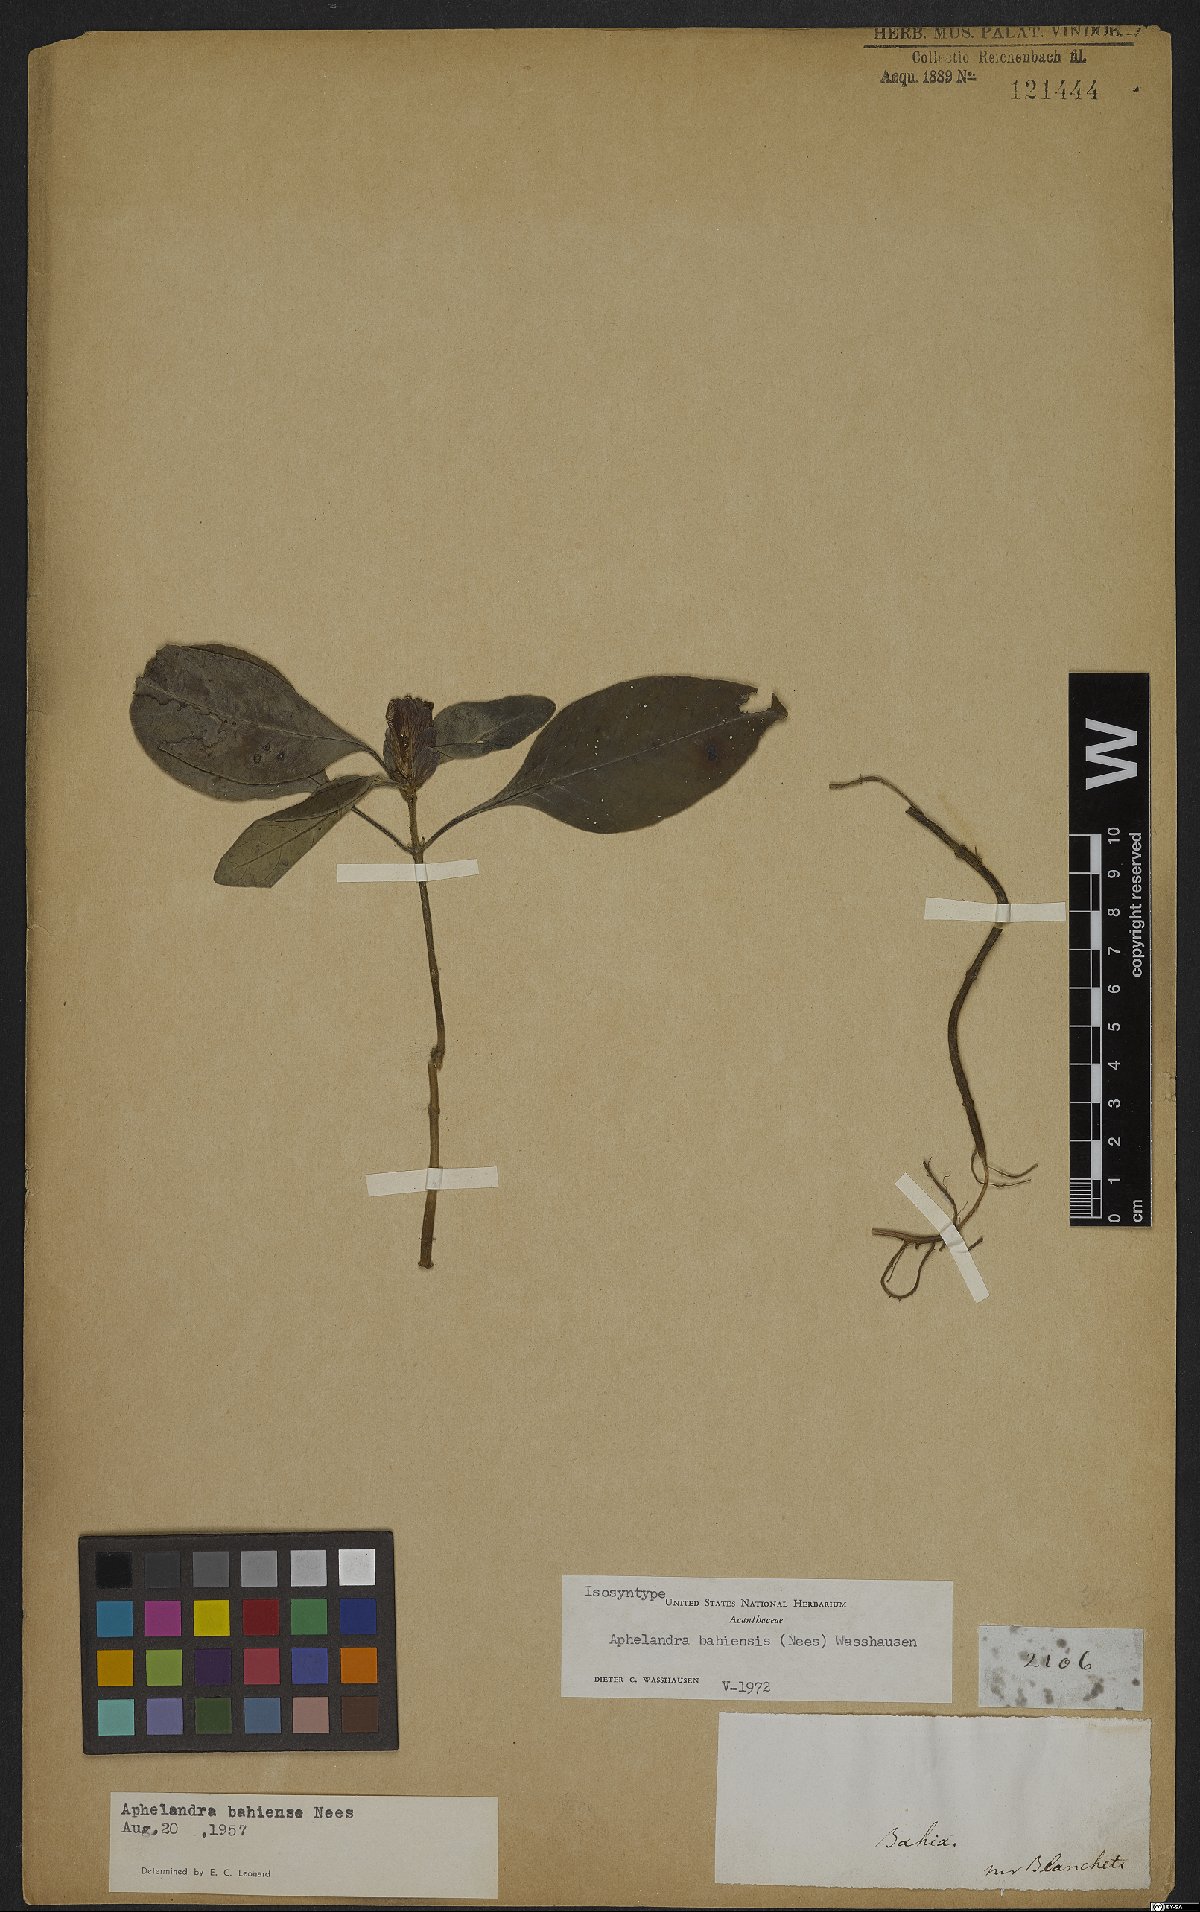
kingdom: Plantae
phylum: Tracheophyta
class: Magnoliopsida
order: Lamiales
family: Acanthaceae
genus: Aphelandra
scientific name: Aphelandra bahiensis
